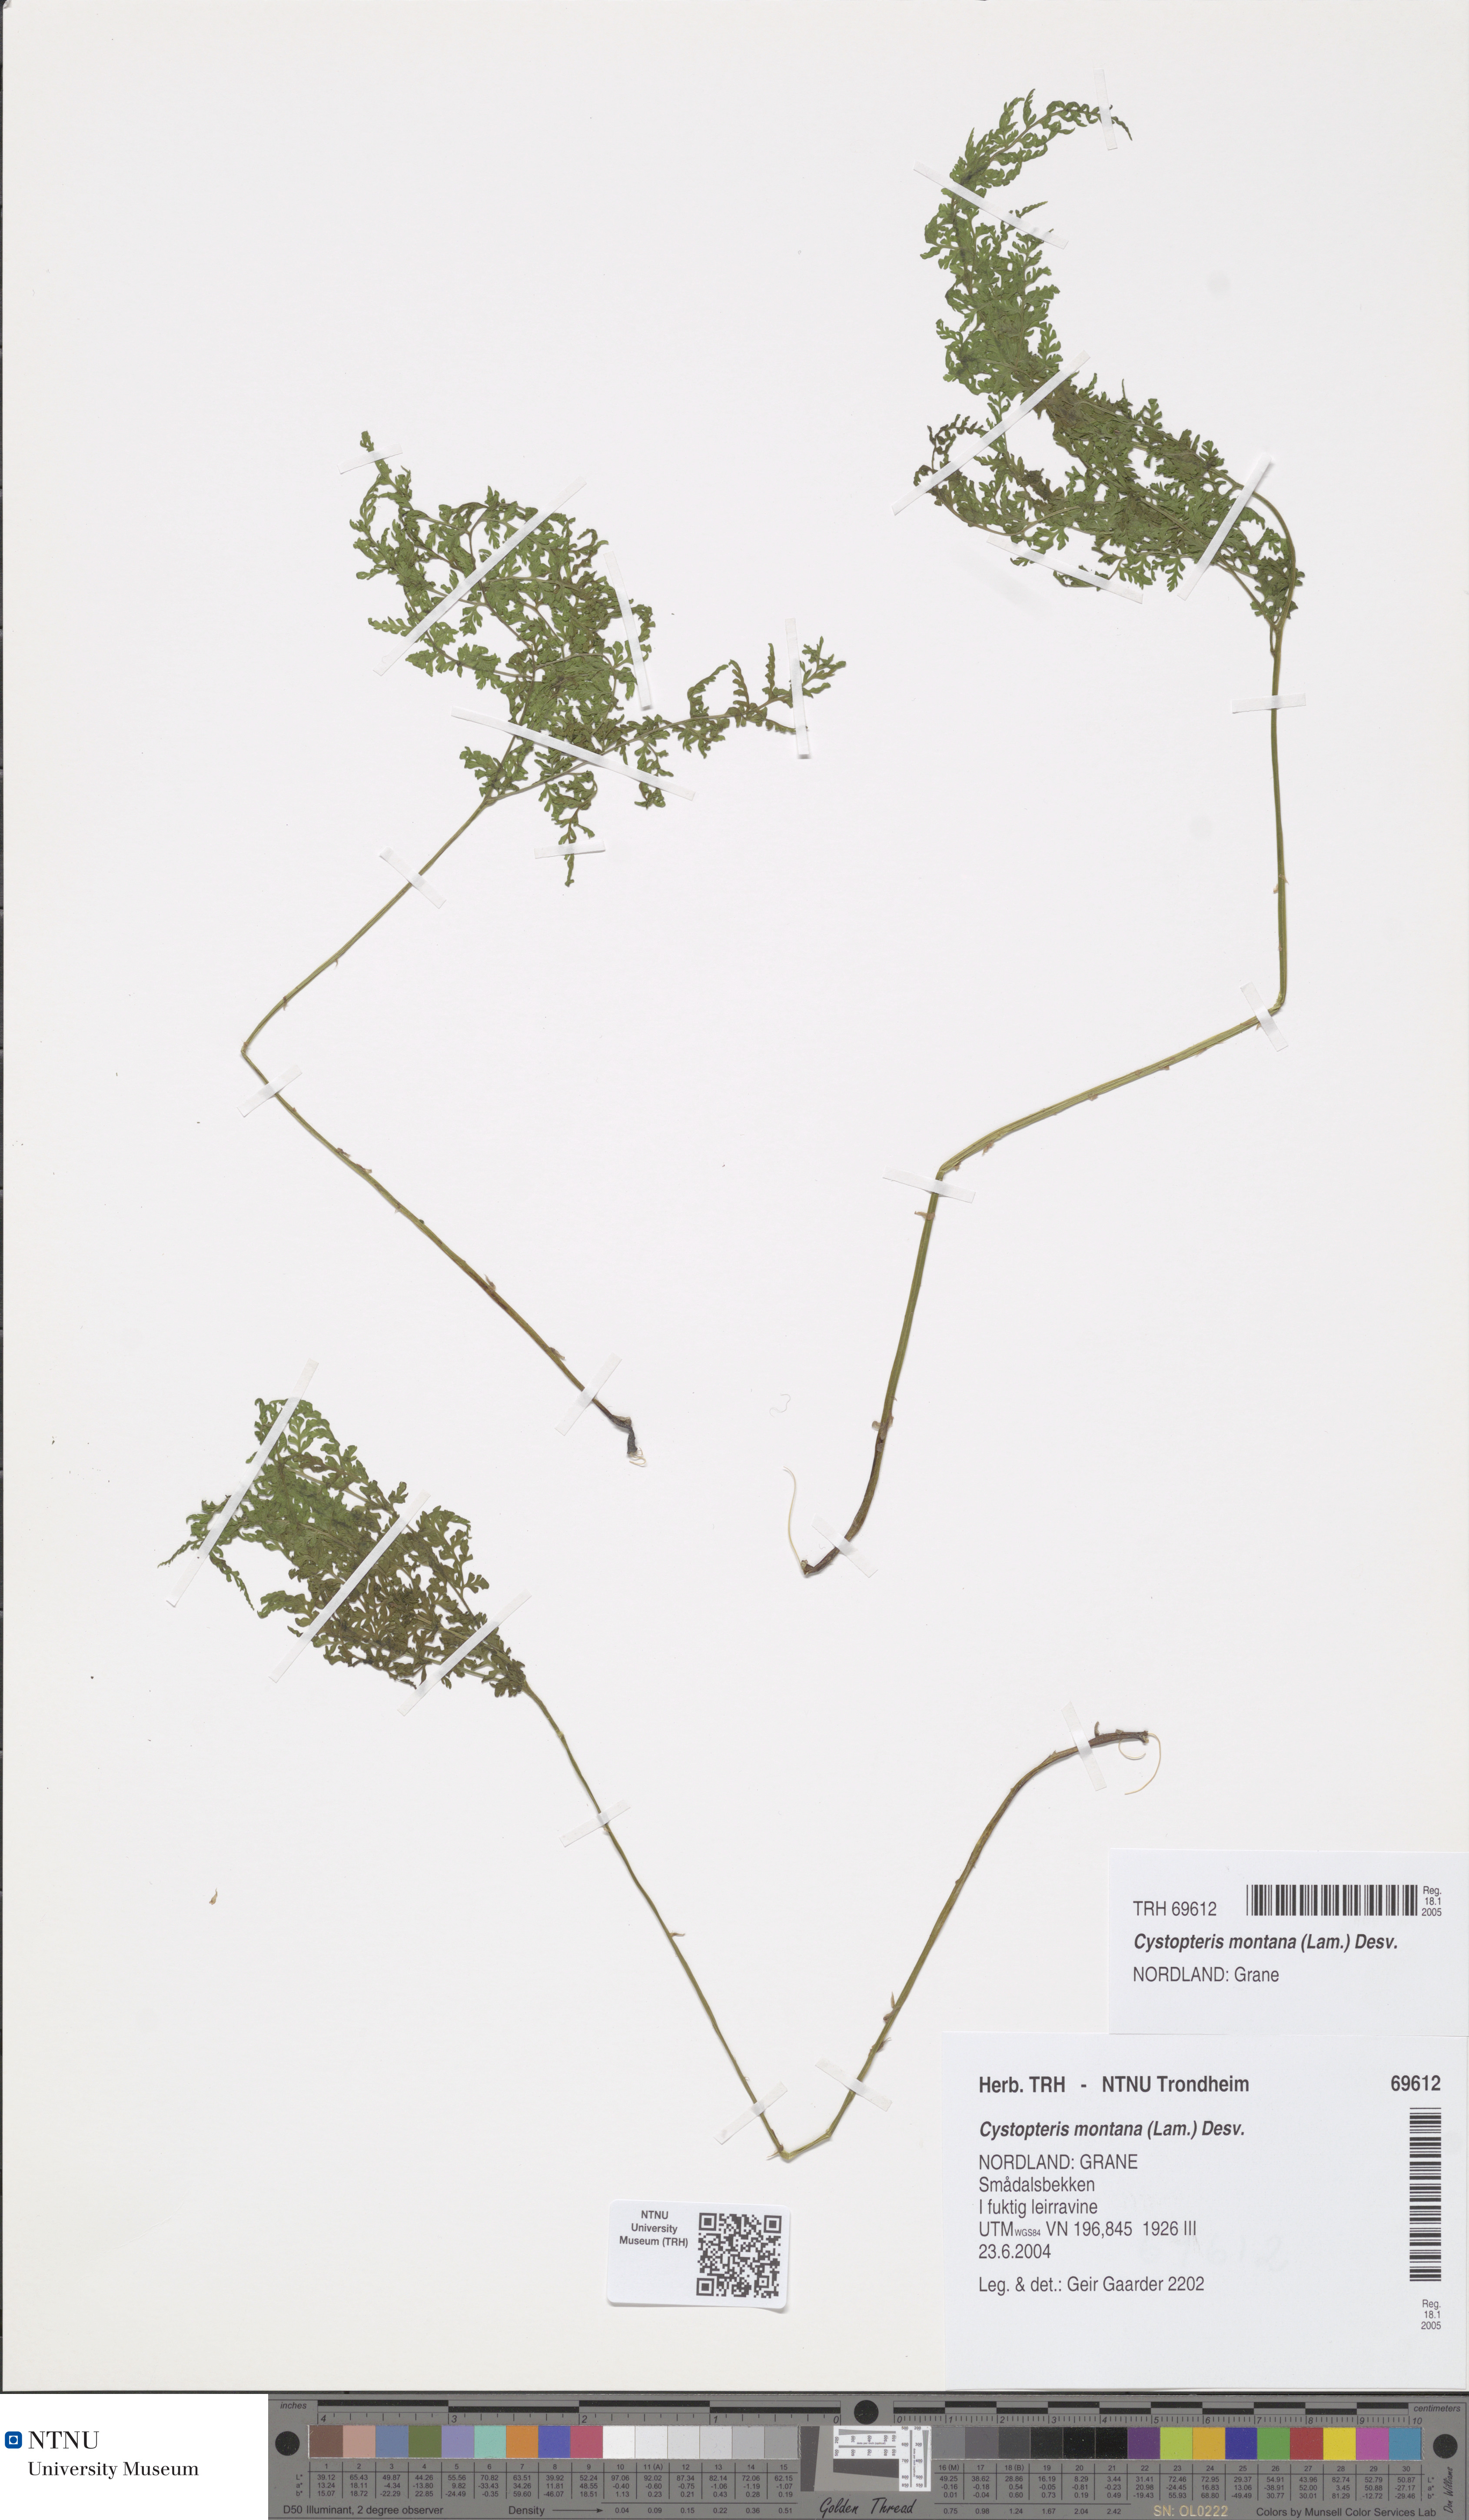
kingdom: Plantae
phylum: Tracheophyta
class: Polypodiopsida
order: Polypodiales
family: Cystopteridaceae
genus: Cystopteris
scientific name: Cystopteris montana
